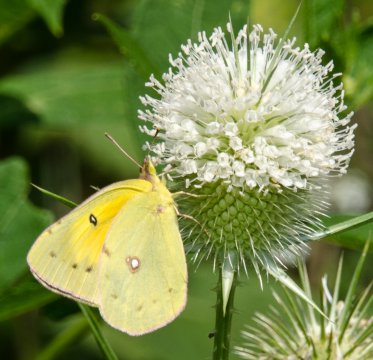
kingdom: Animalia
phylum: Arthropoda
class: Insecta
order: Lepidoptera
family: Pieridae
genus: Colias
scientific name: Colias eurytheme
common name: Orange Sulphur
